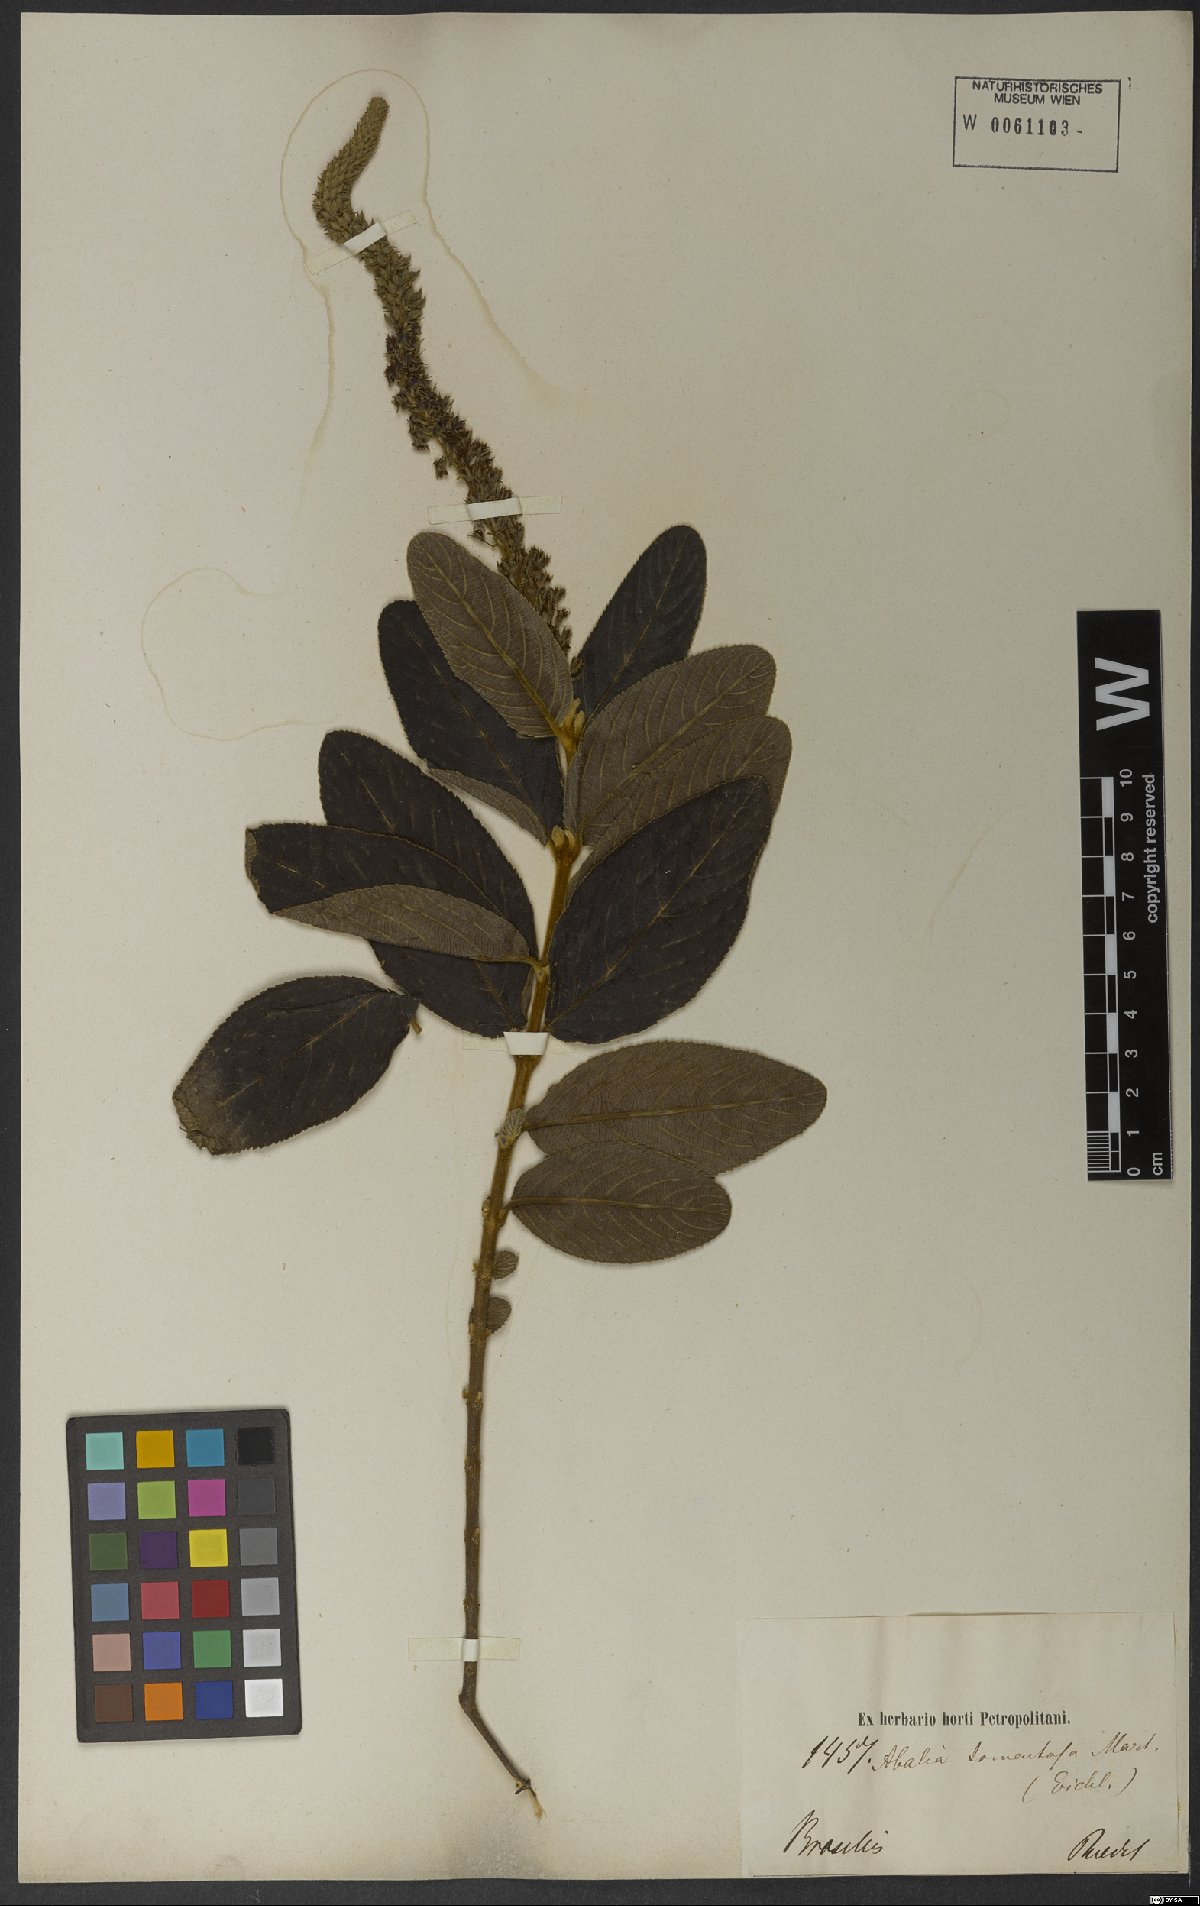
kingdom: Plantae
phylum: Tracheophyta
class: Magnoliopsida
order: Malpighiales
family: Salicaceae
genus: Abatia
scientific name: Abatia americana
